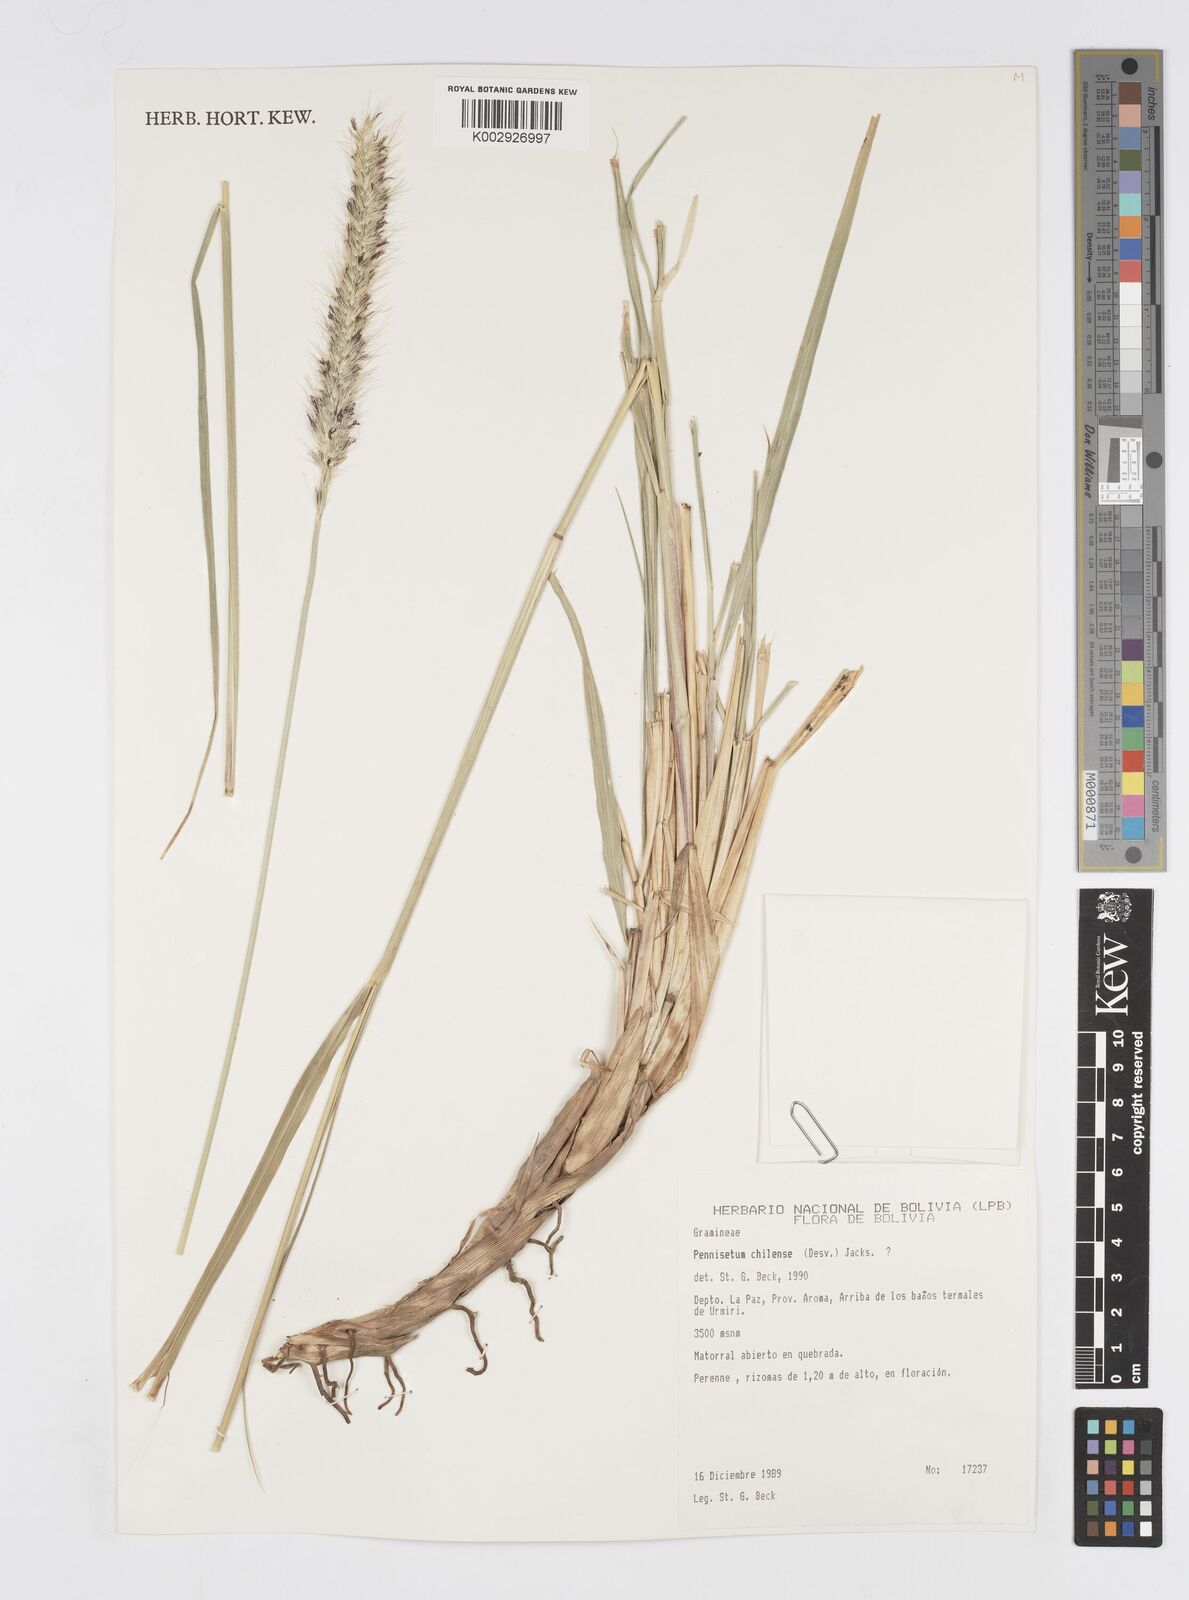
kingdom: Plantae
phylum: Tracheophyta
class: Liliopsida
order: Poales
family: Poaceae
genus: Cenchrus
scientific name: Cenchrus chilensis
